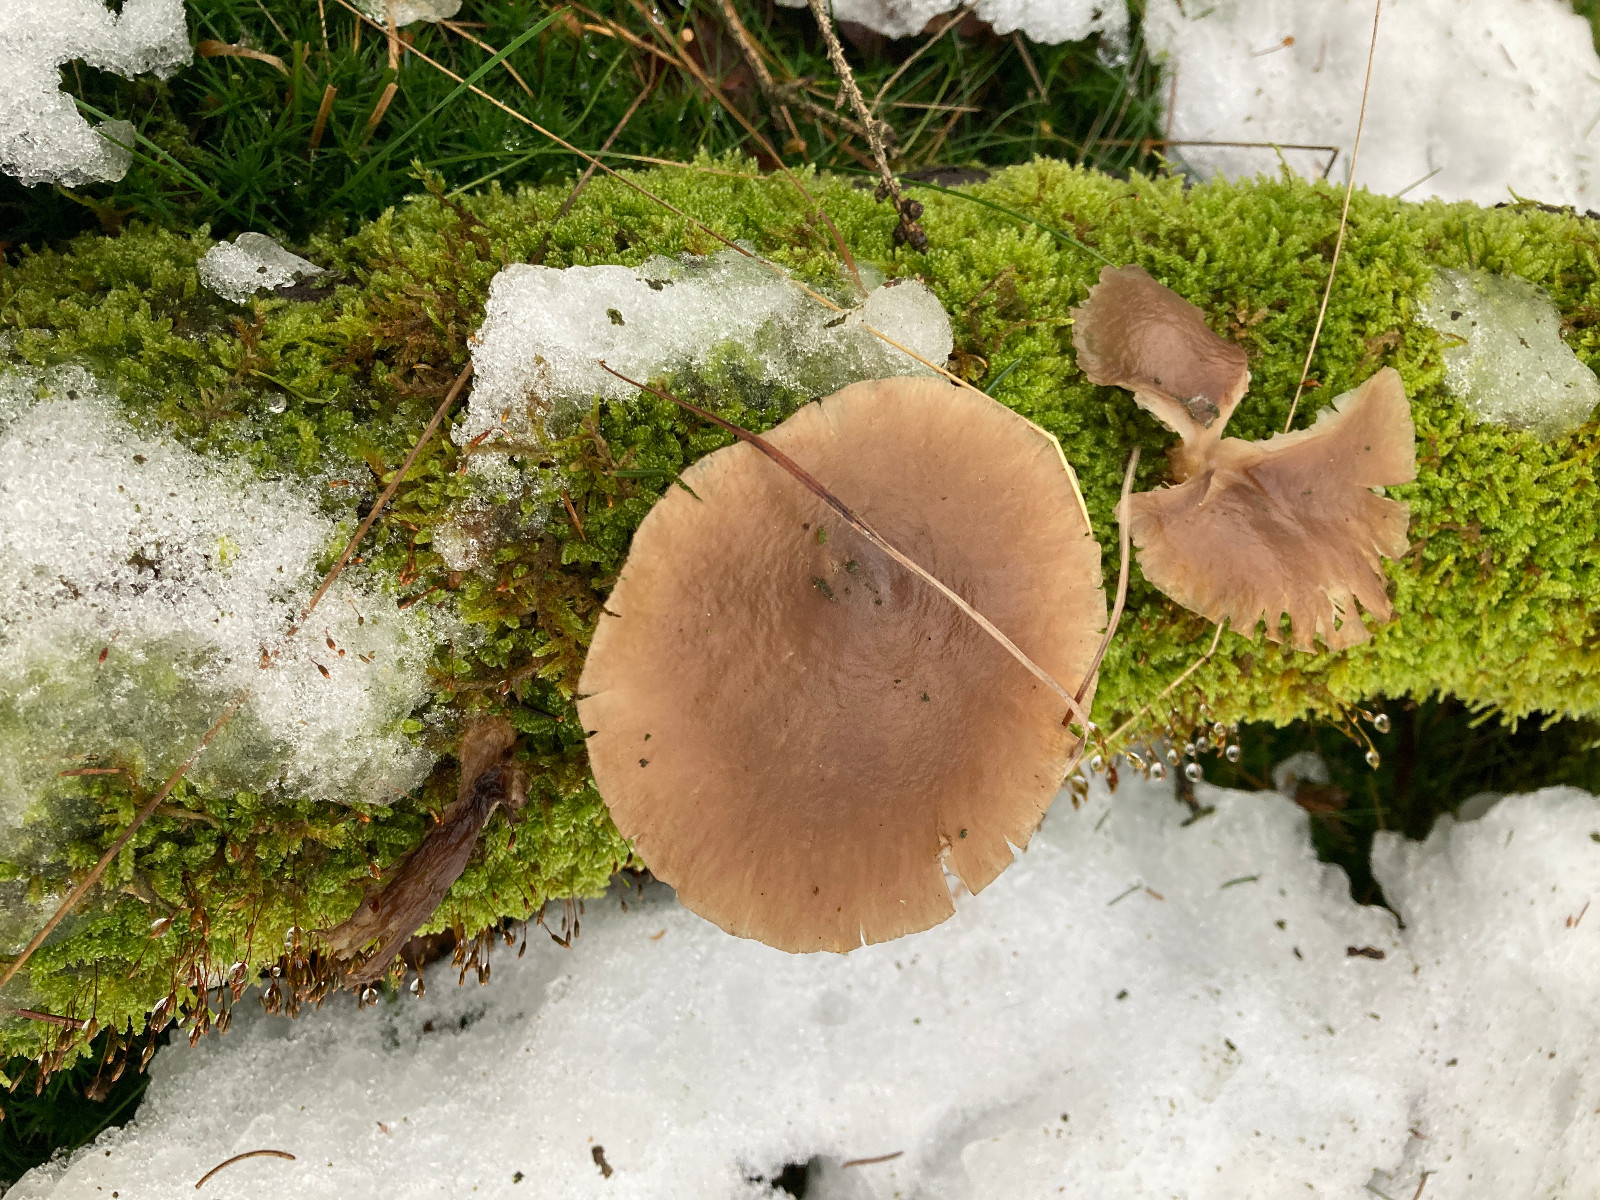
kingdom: Fungi
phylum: Basidiomycota
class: Agaricomycetes
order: Agaricales
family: Tricholomataceae
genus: Clitocybe
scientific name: Clitocybe
